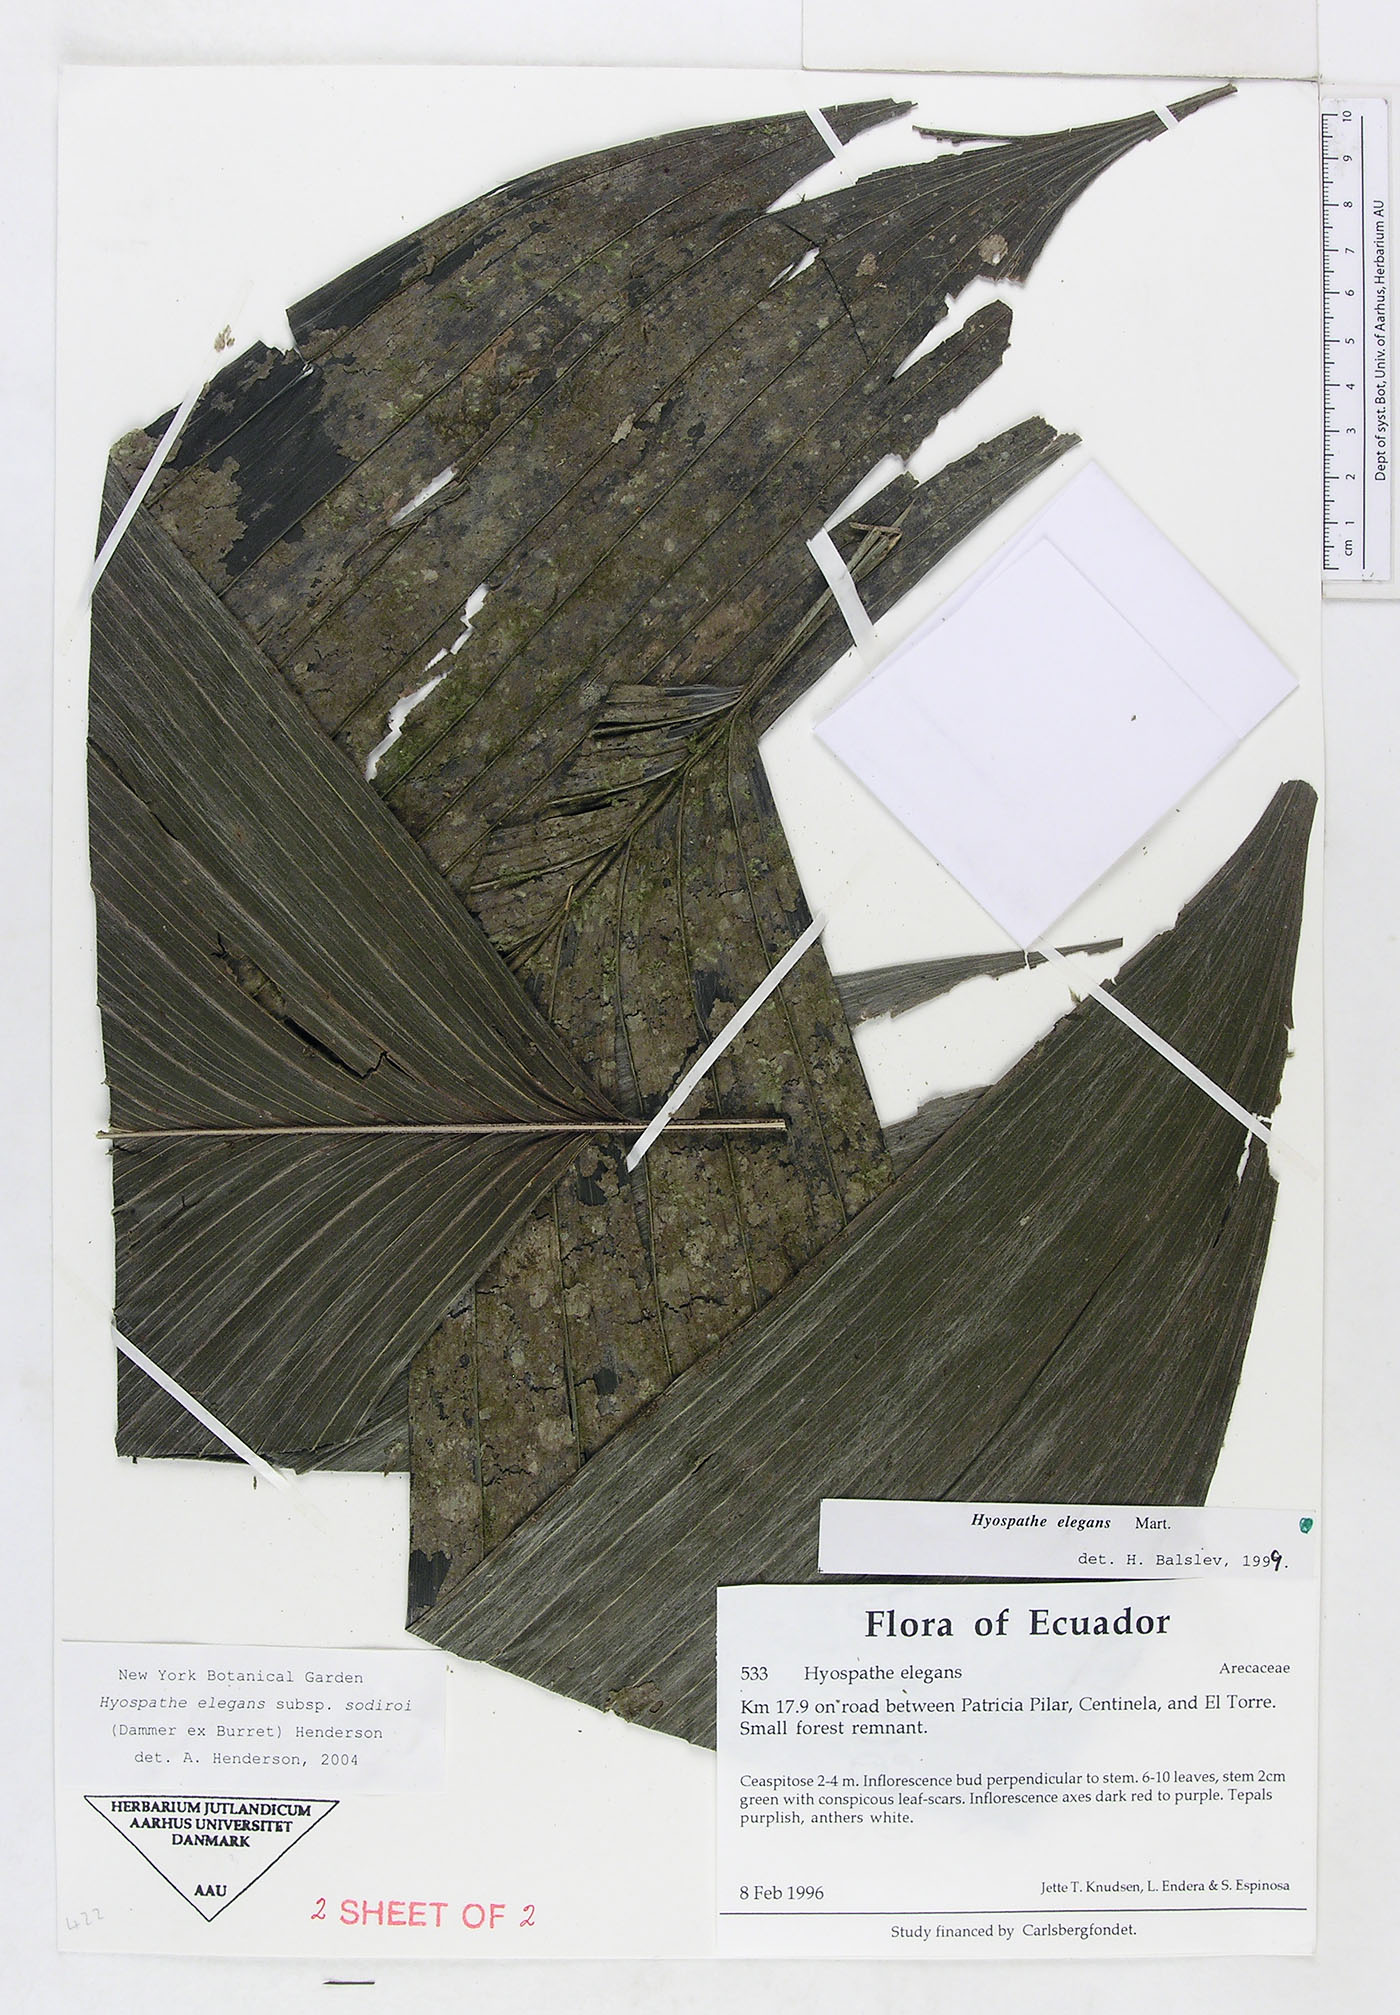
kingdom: Plantae
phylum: Tracheophyta
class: Liliopsida
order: Arecales
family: Arecaceae
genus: Hyospathe
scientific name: Hyospathe elegans
